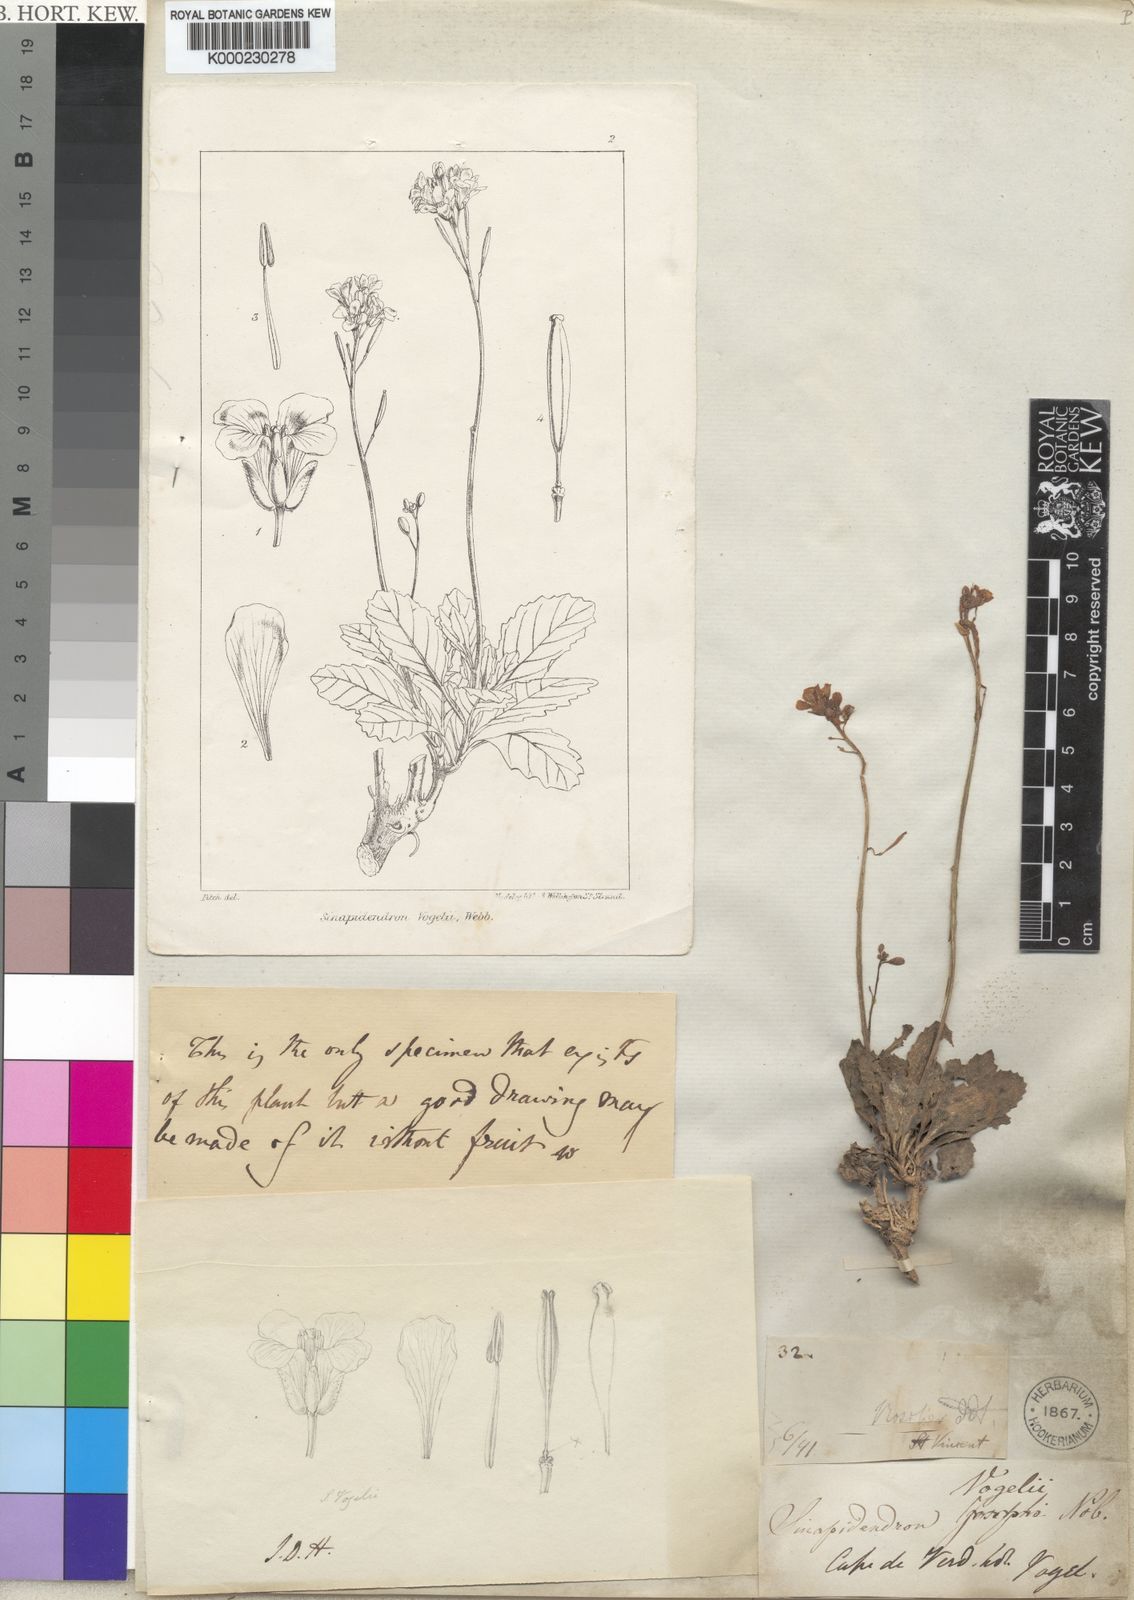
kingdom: Plantae
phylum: Tracheophyta
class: Magnoliopsida
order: Brassicales
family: Brassicaceae
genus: Diplotaxis
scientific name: Diplotaxis vogelii
